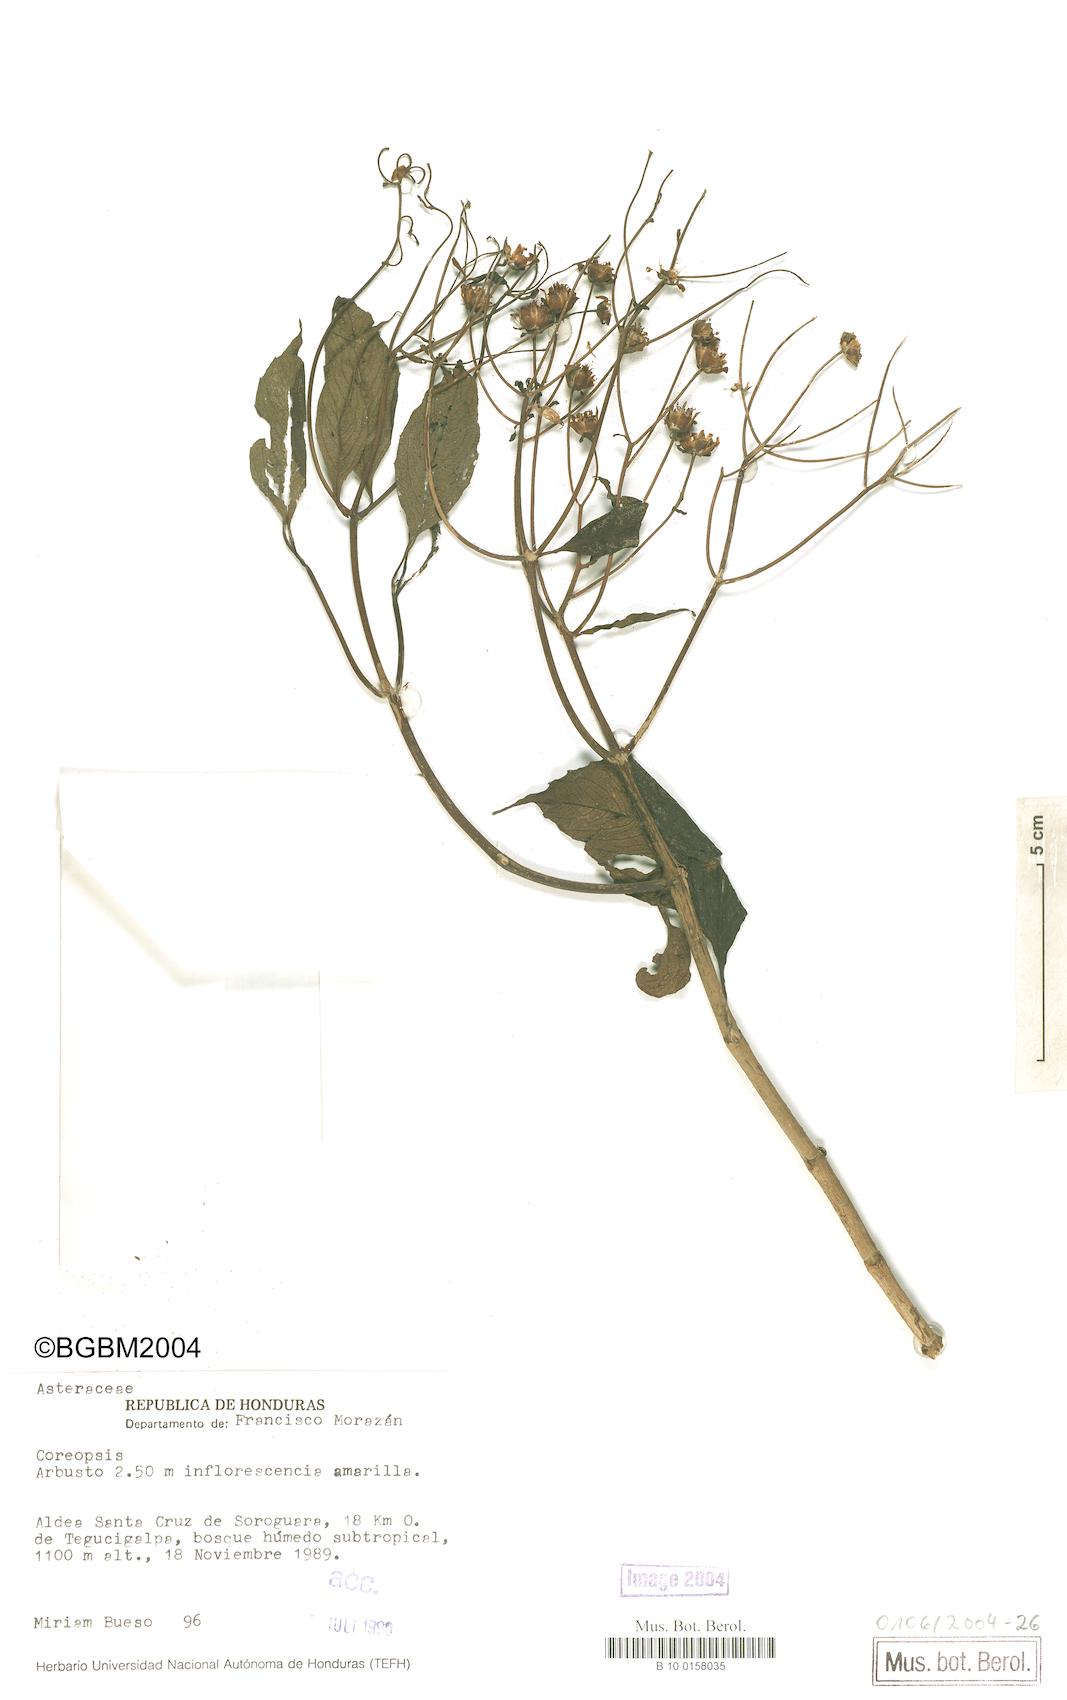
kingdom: Plantae
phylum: Tracheophyta
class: Magnoliopsida
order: Asterales
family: Asteraceae
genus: Coreopsis
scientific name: Coreopsis
